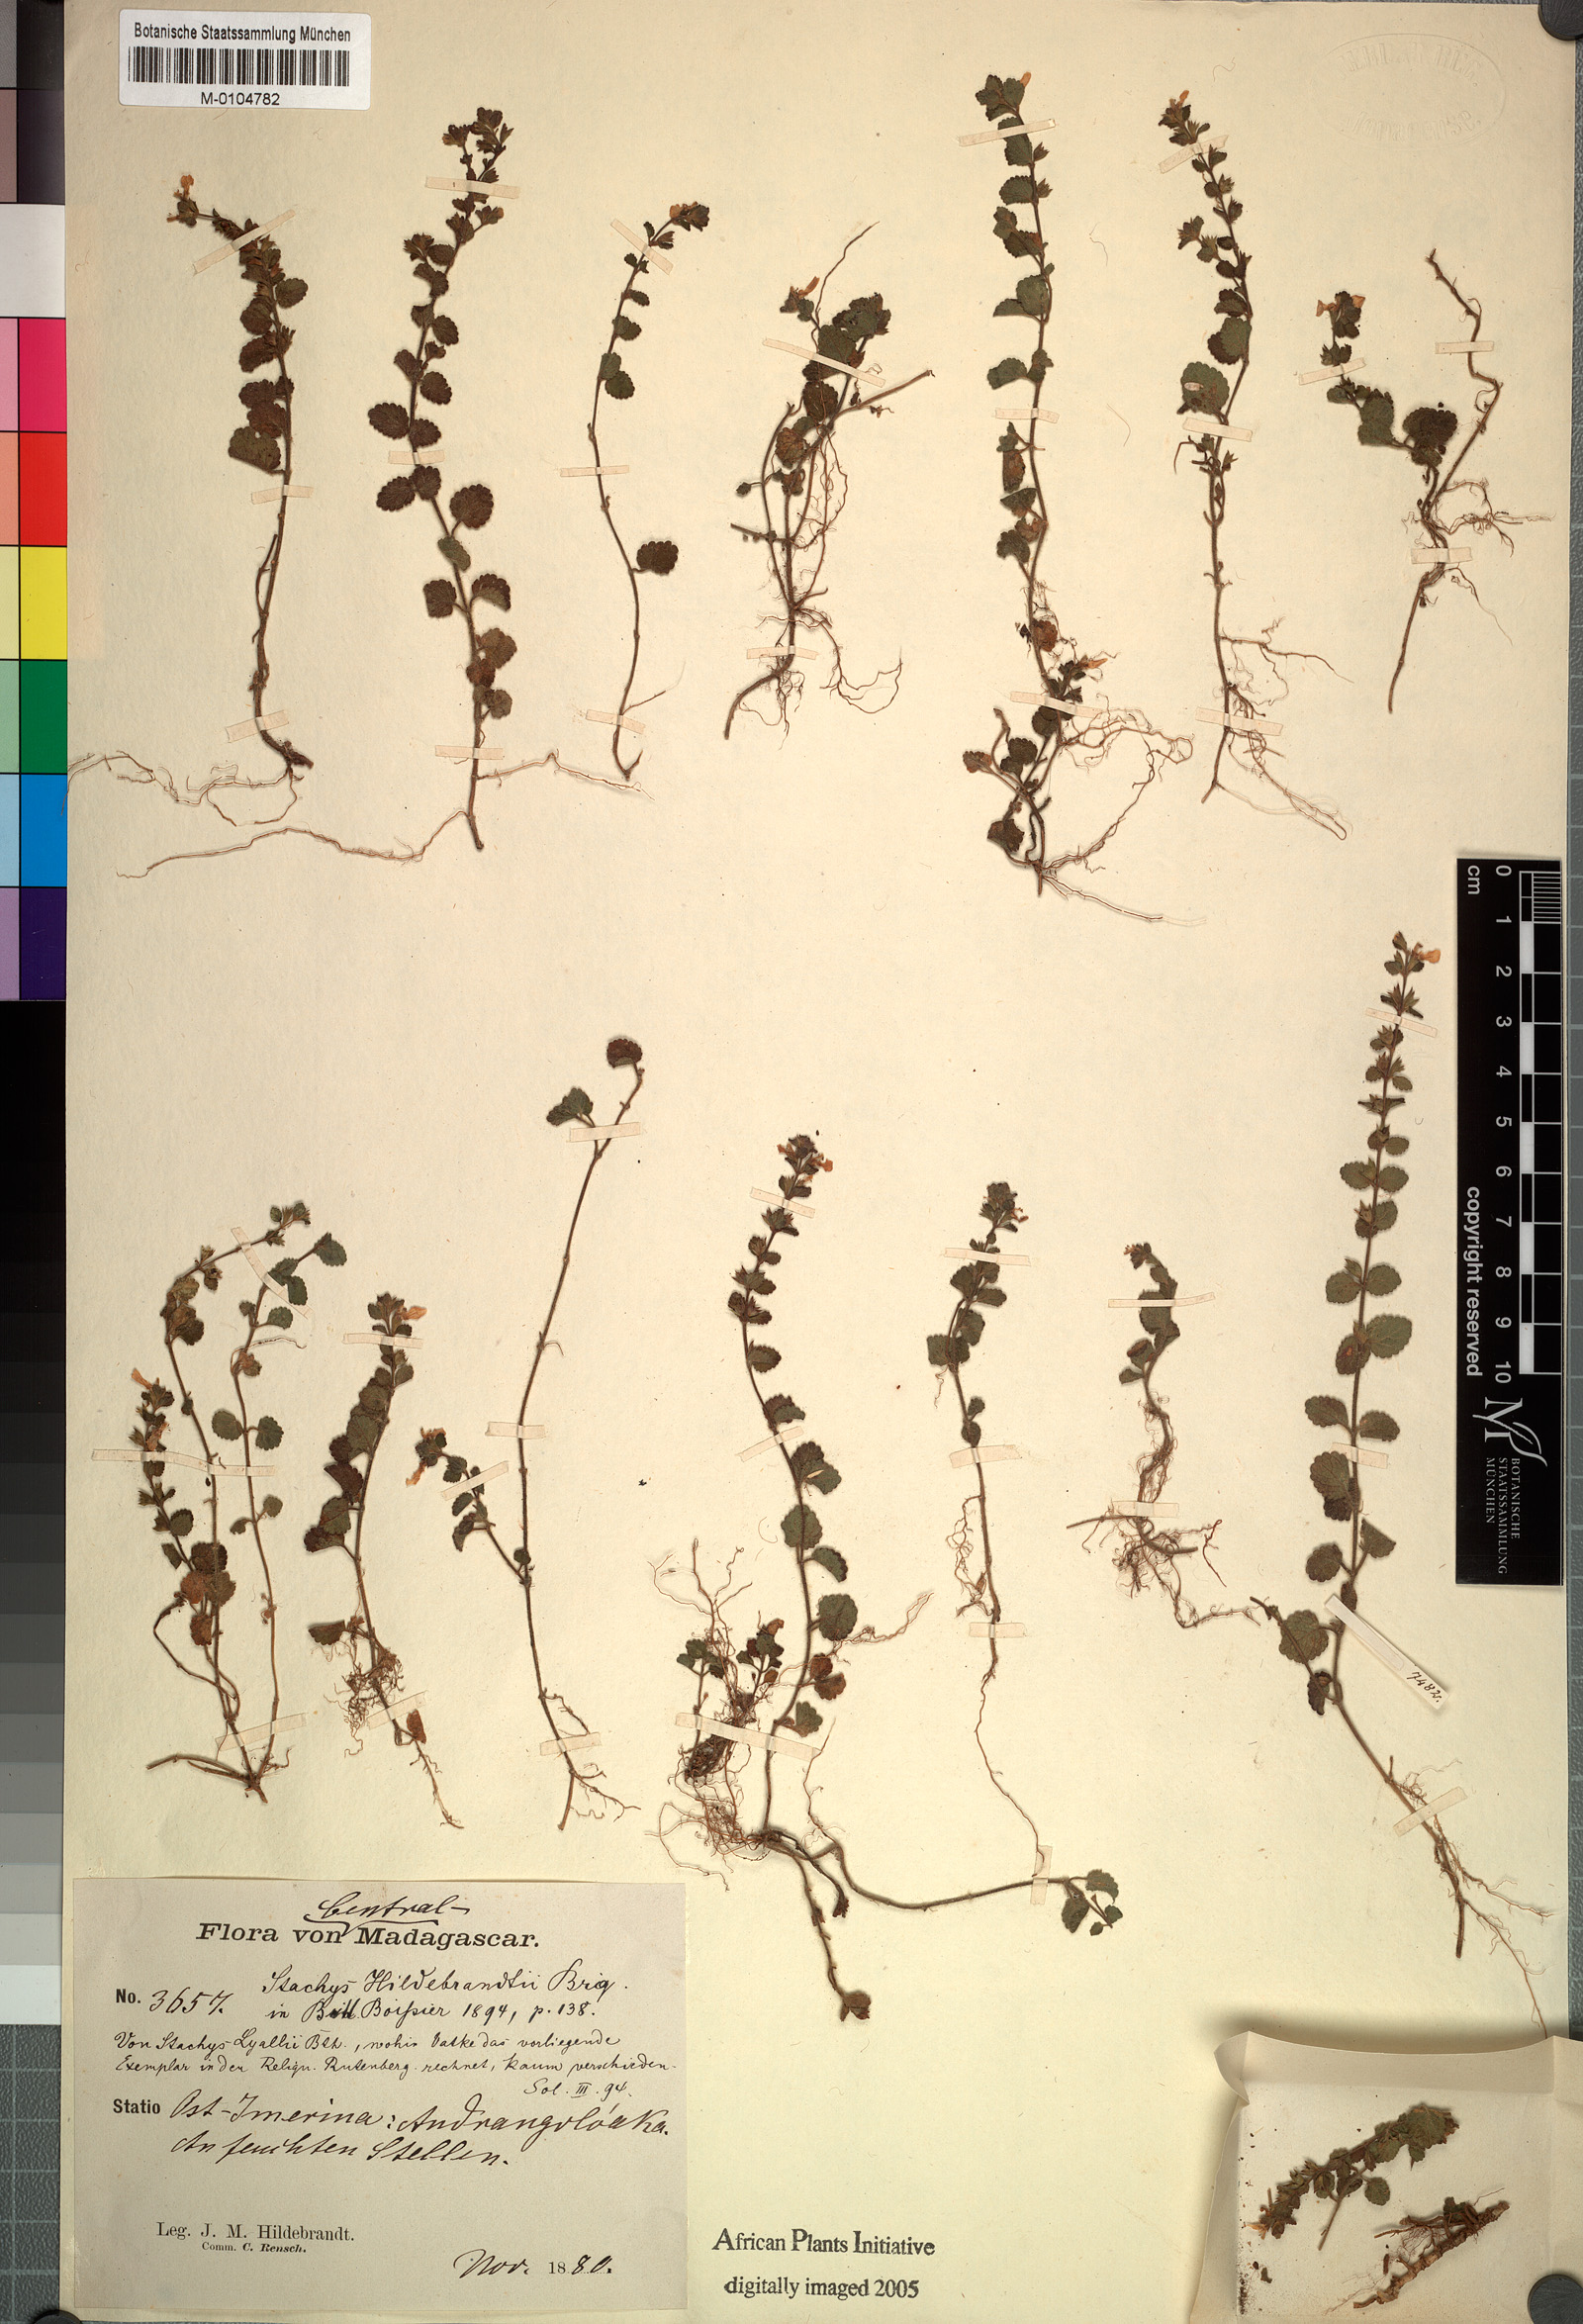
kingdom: Plantae
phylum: Tracheophyta
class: Magnoliopsida
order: Lamiales
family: Lamiaceae
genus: Stachys
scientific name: Stachys lyallii
